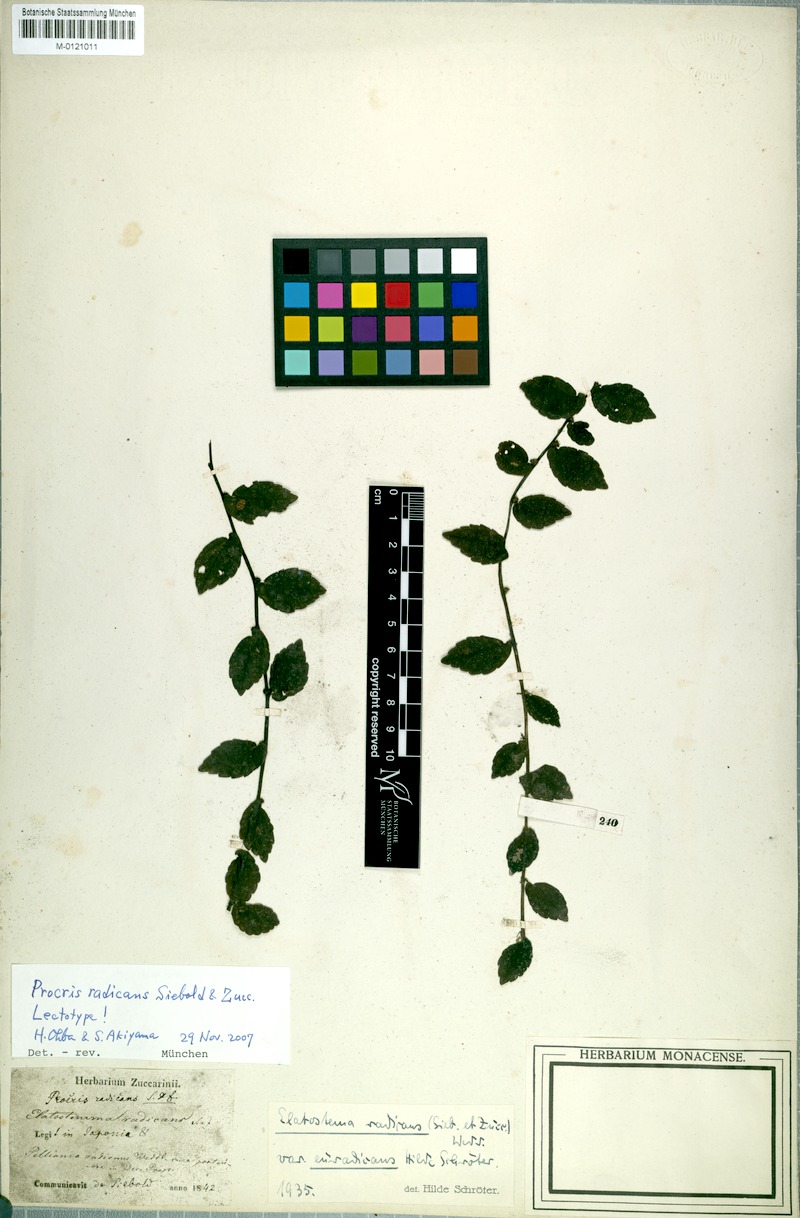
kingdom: Plantae
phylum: Tracheophyta
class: Magnoliopsida
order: Rosales
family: Urticaceae
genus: Elatostema
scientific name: Elatostema radicans
